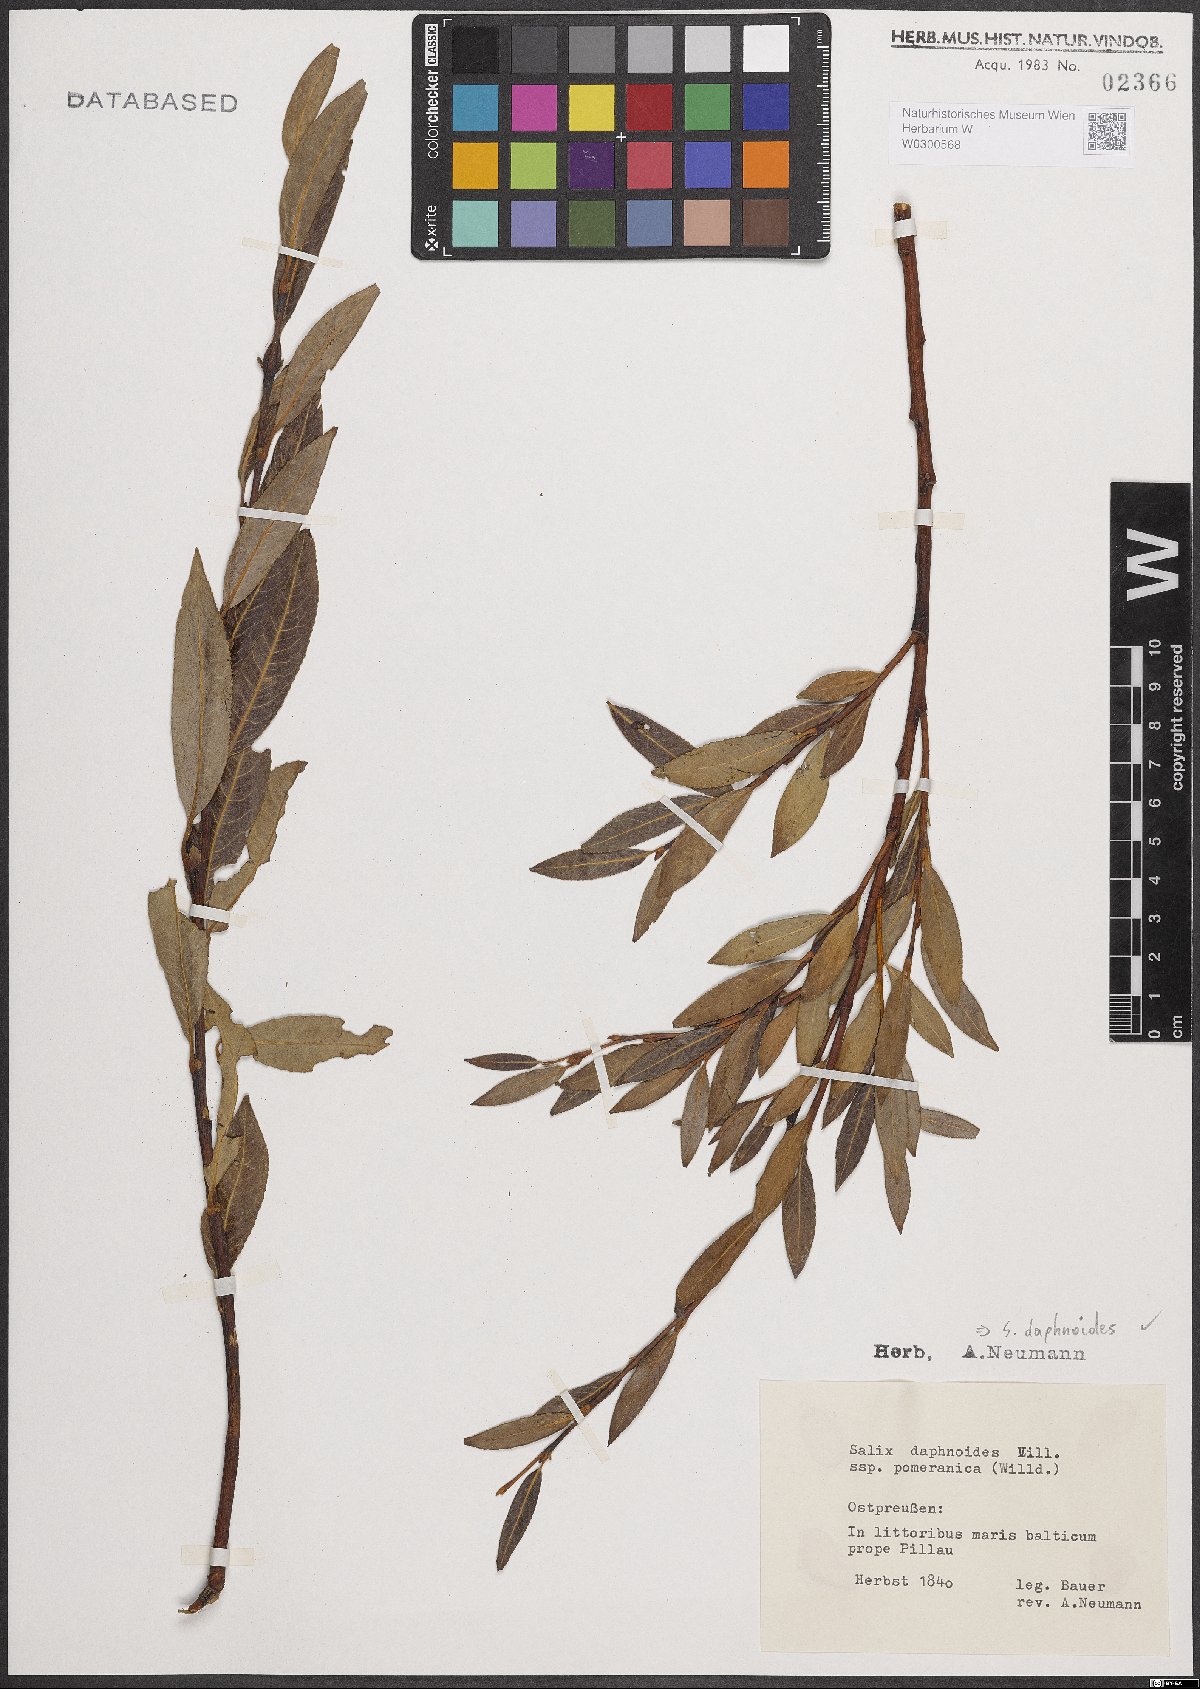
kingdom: Plantae
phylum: Tracheophyta
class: Magnoliopsida
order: Malpighiales
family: Salicaceae
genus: Salix
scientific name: Salix daphnoides
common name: European violet-willow
